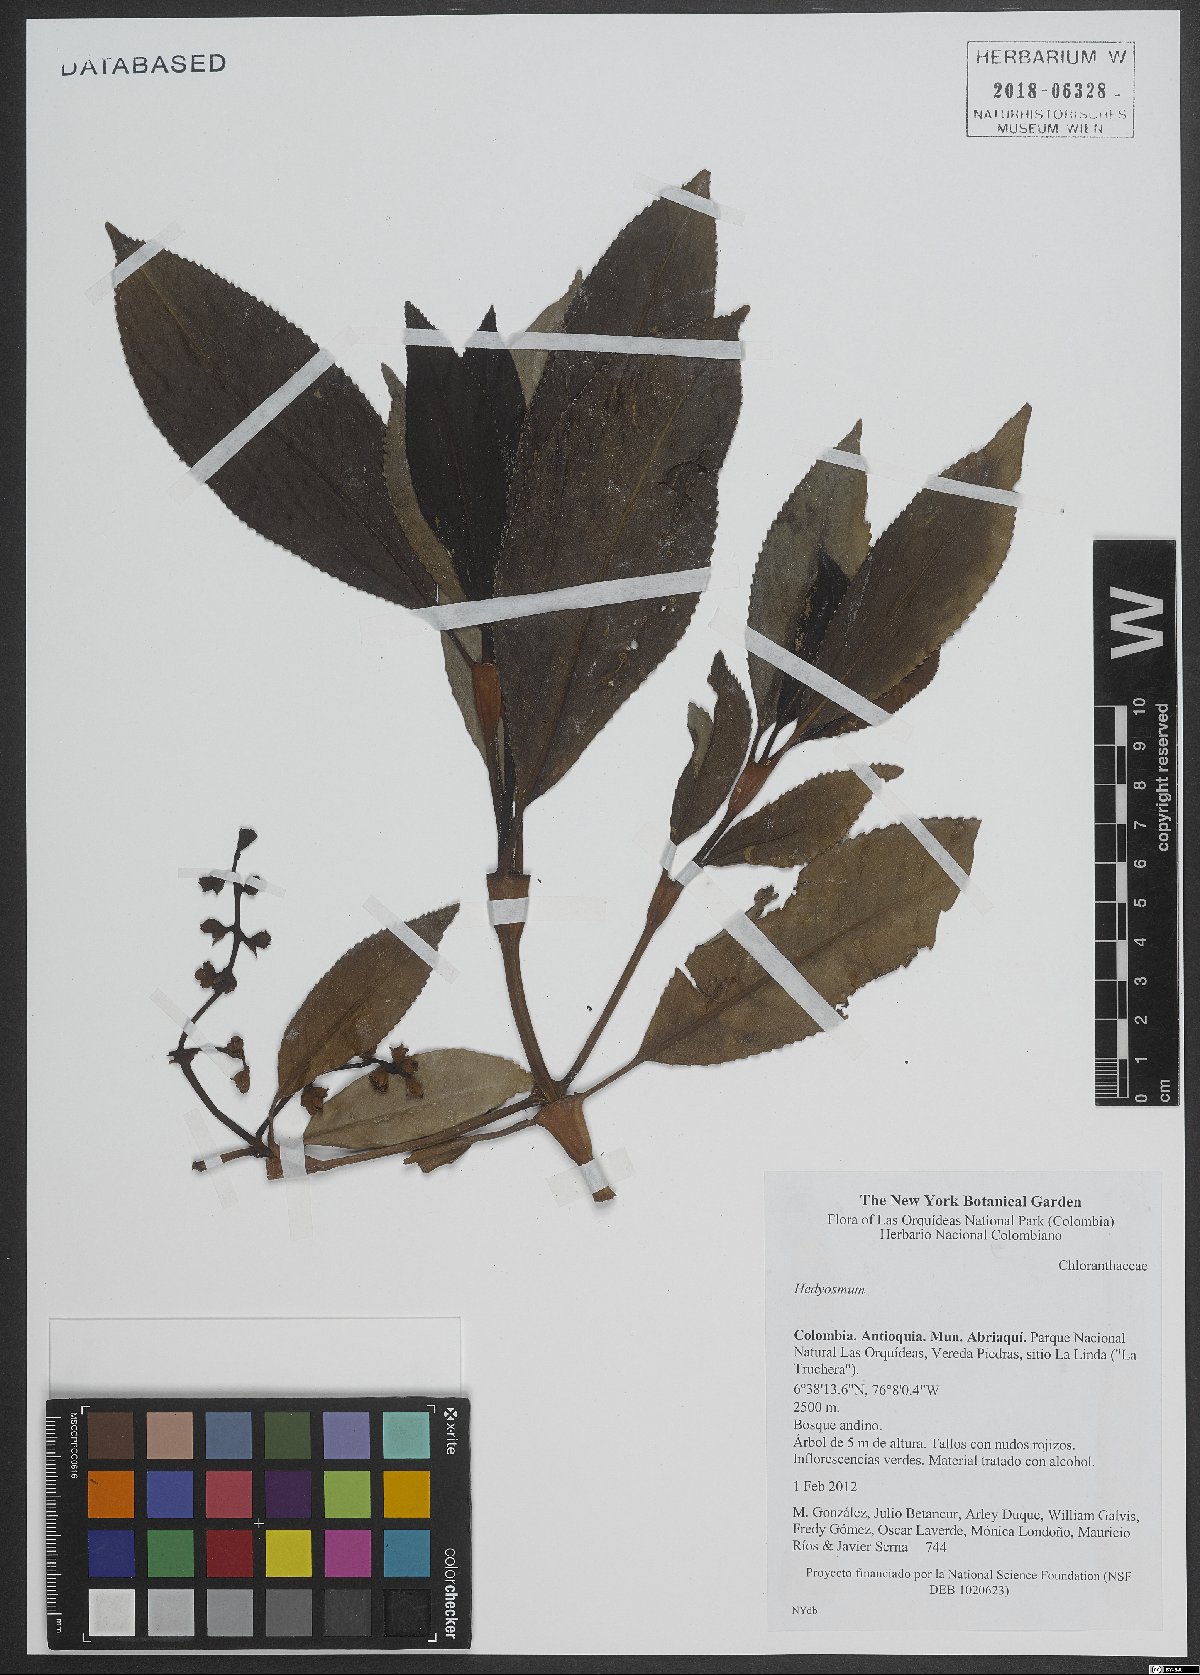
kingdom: Plantae
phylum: Tracheophyta
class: Magnoliopsida
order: Chloranthales
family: Chloranthaceae
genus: Hedyosmum
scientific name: Hedyosmum
